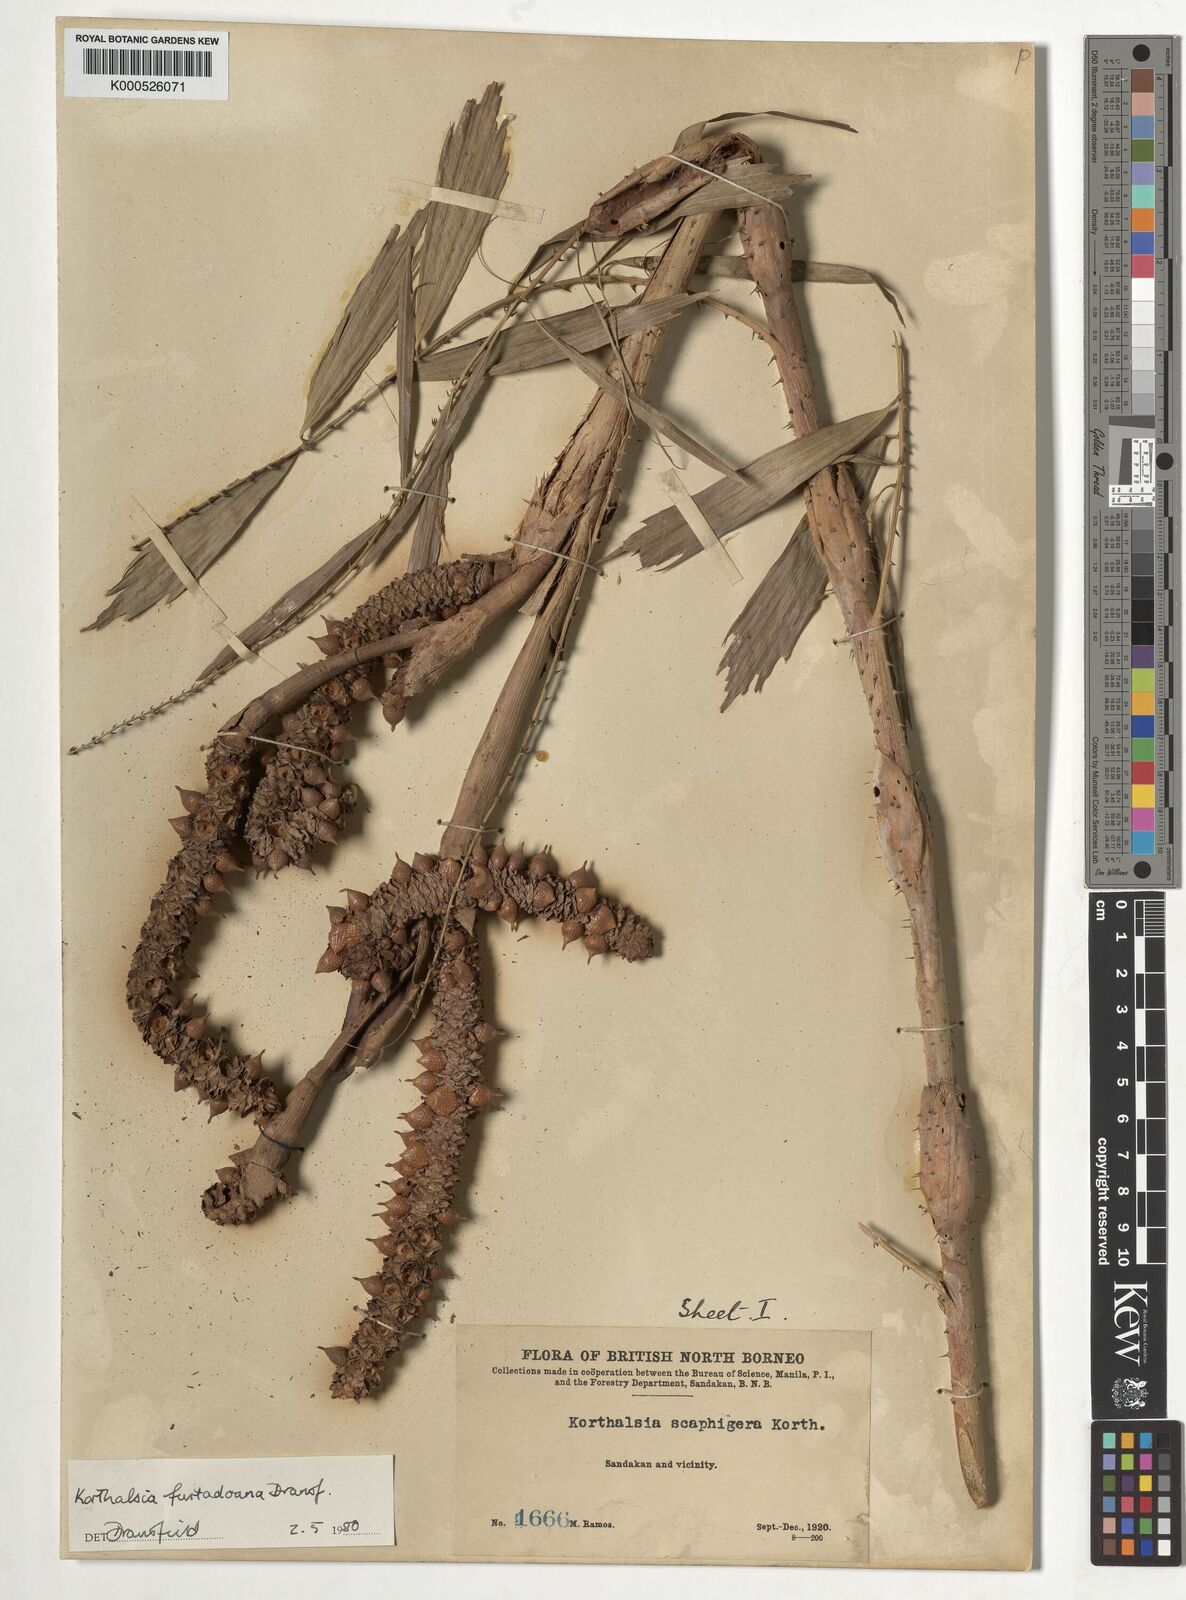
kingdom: Plantae
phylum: Tracheophyta
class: Liliopsida
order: Arecales
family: Arecaceae
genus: Korthalsia
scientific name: Korthalsia furtadoana
